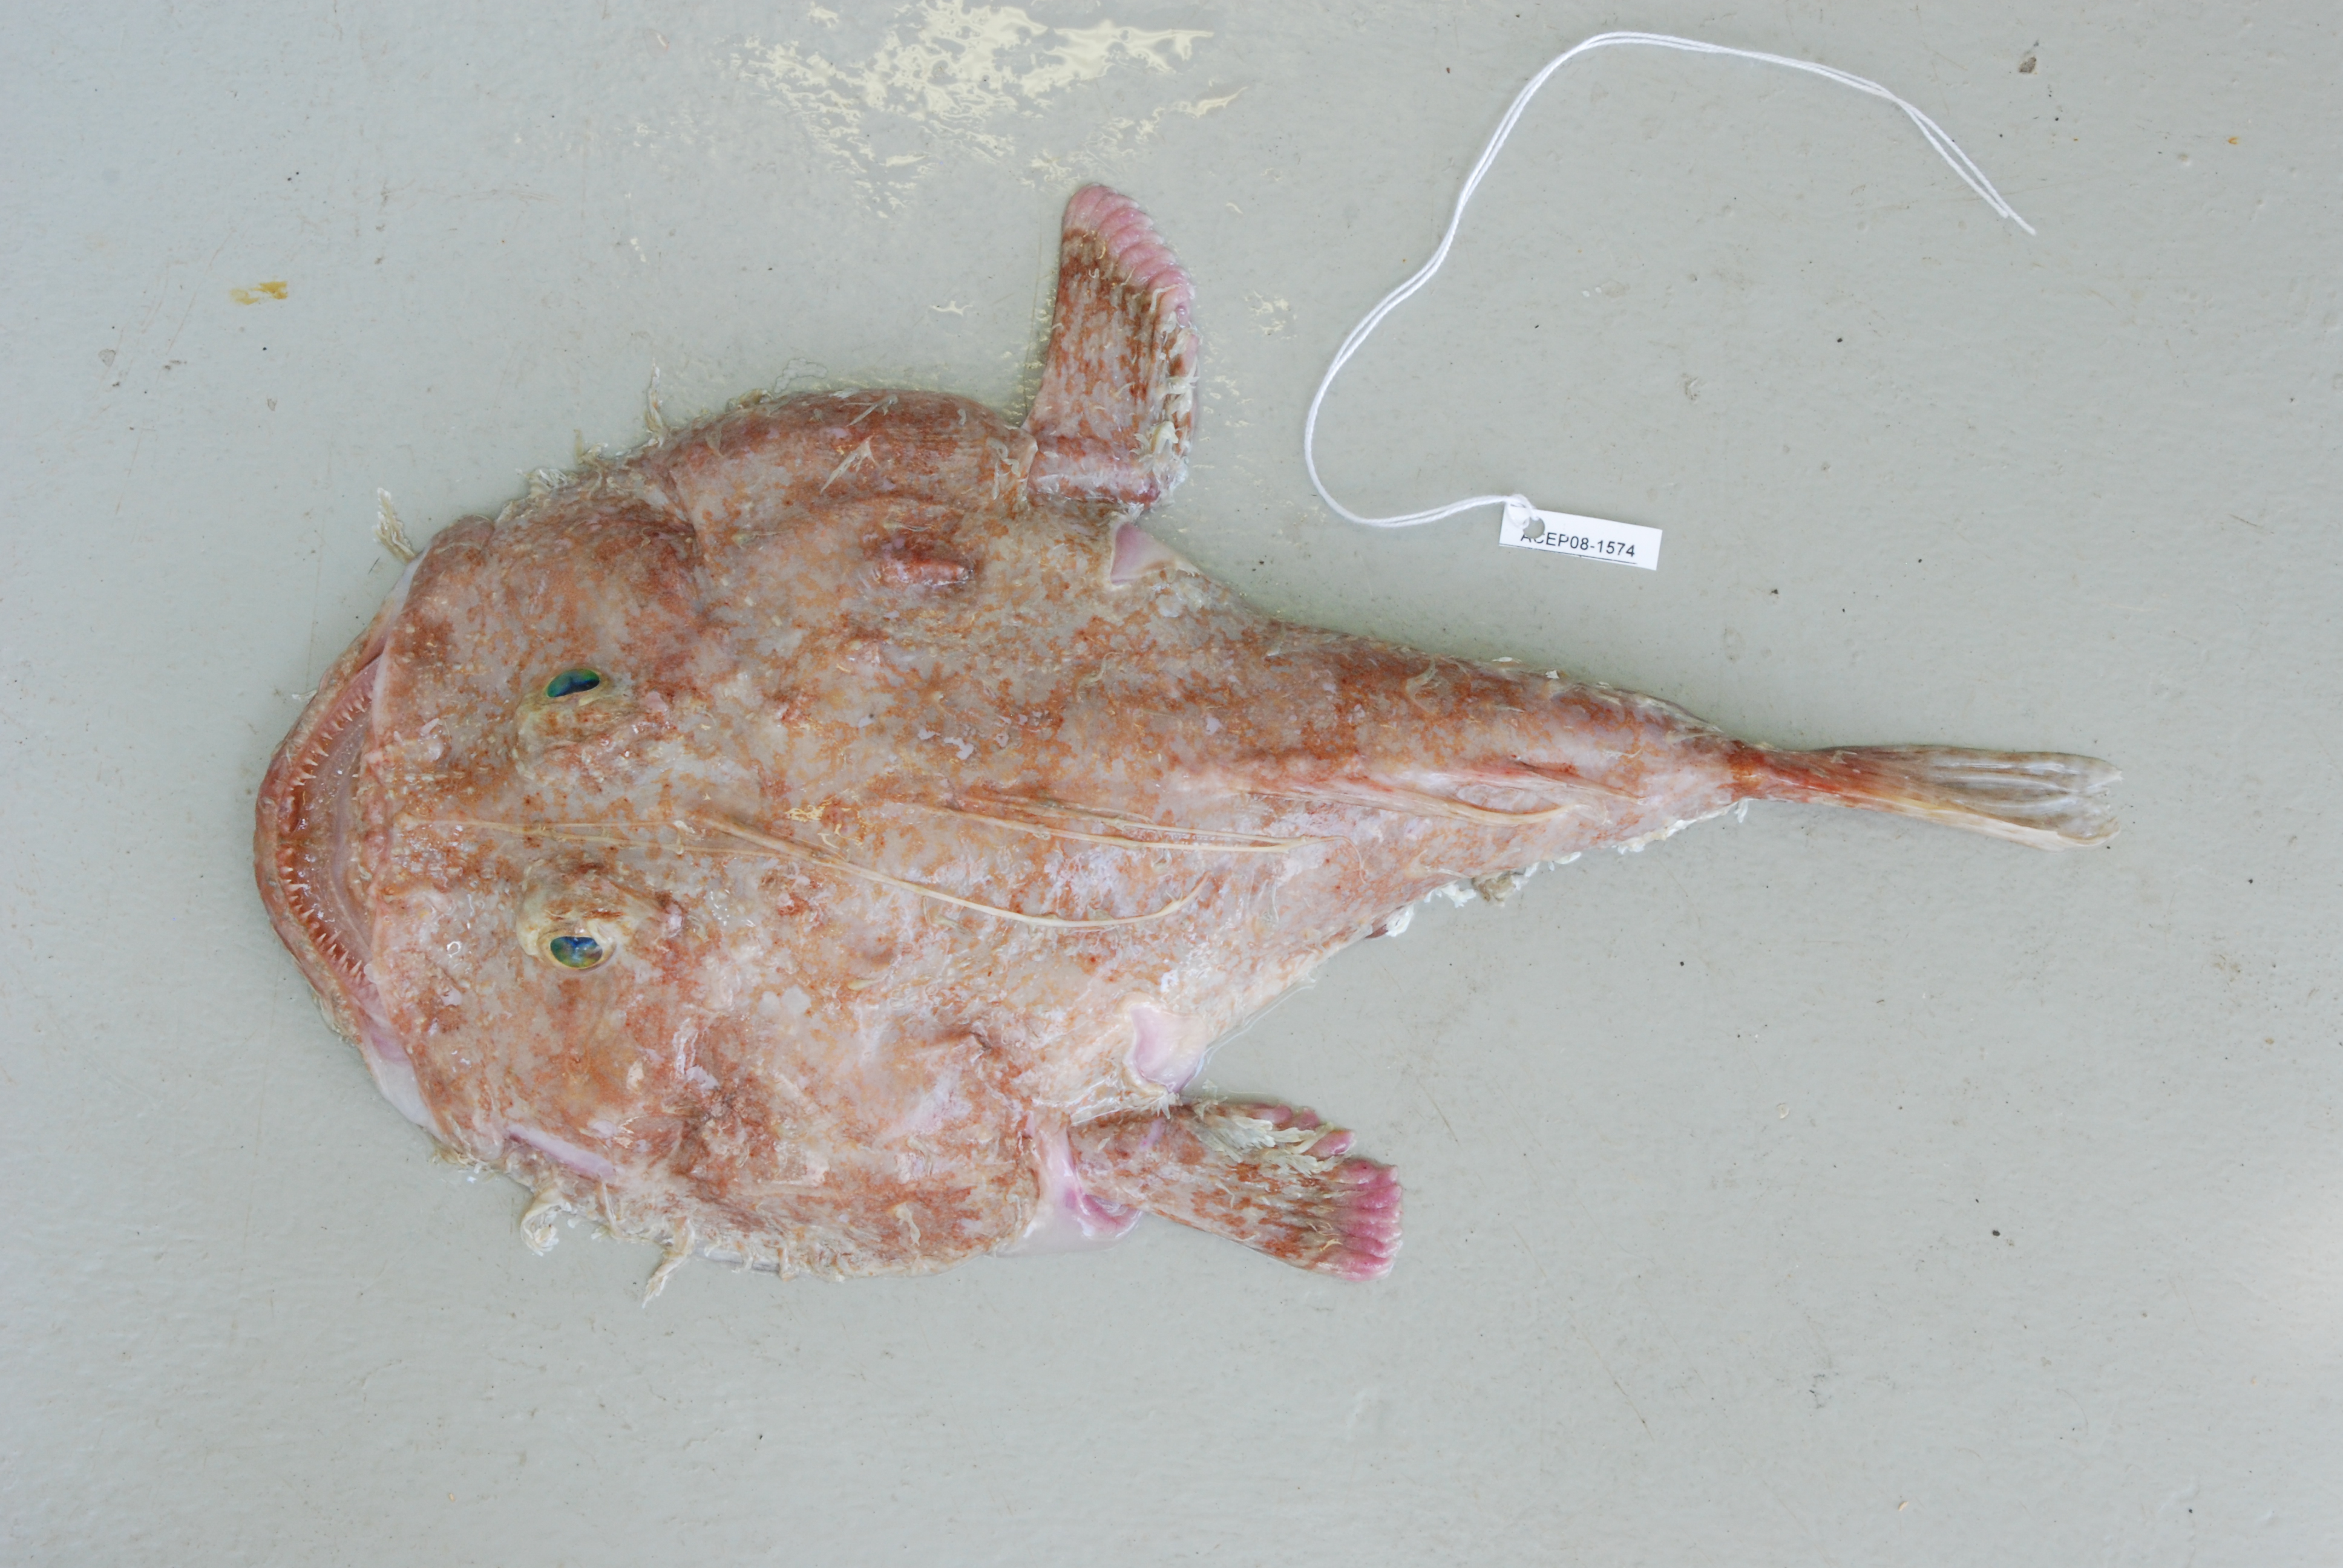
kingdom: Animalia
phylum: Chordata
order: Lophiiformes
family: Lophiidae
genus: Lophiodes
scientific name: Lophiodes mutilus
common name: Smooth angler
